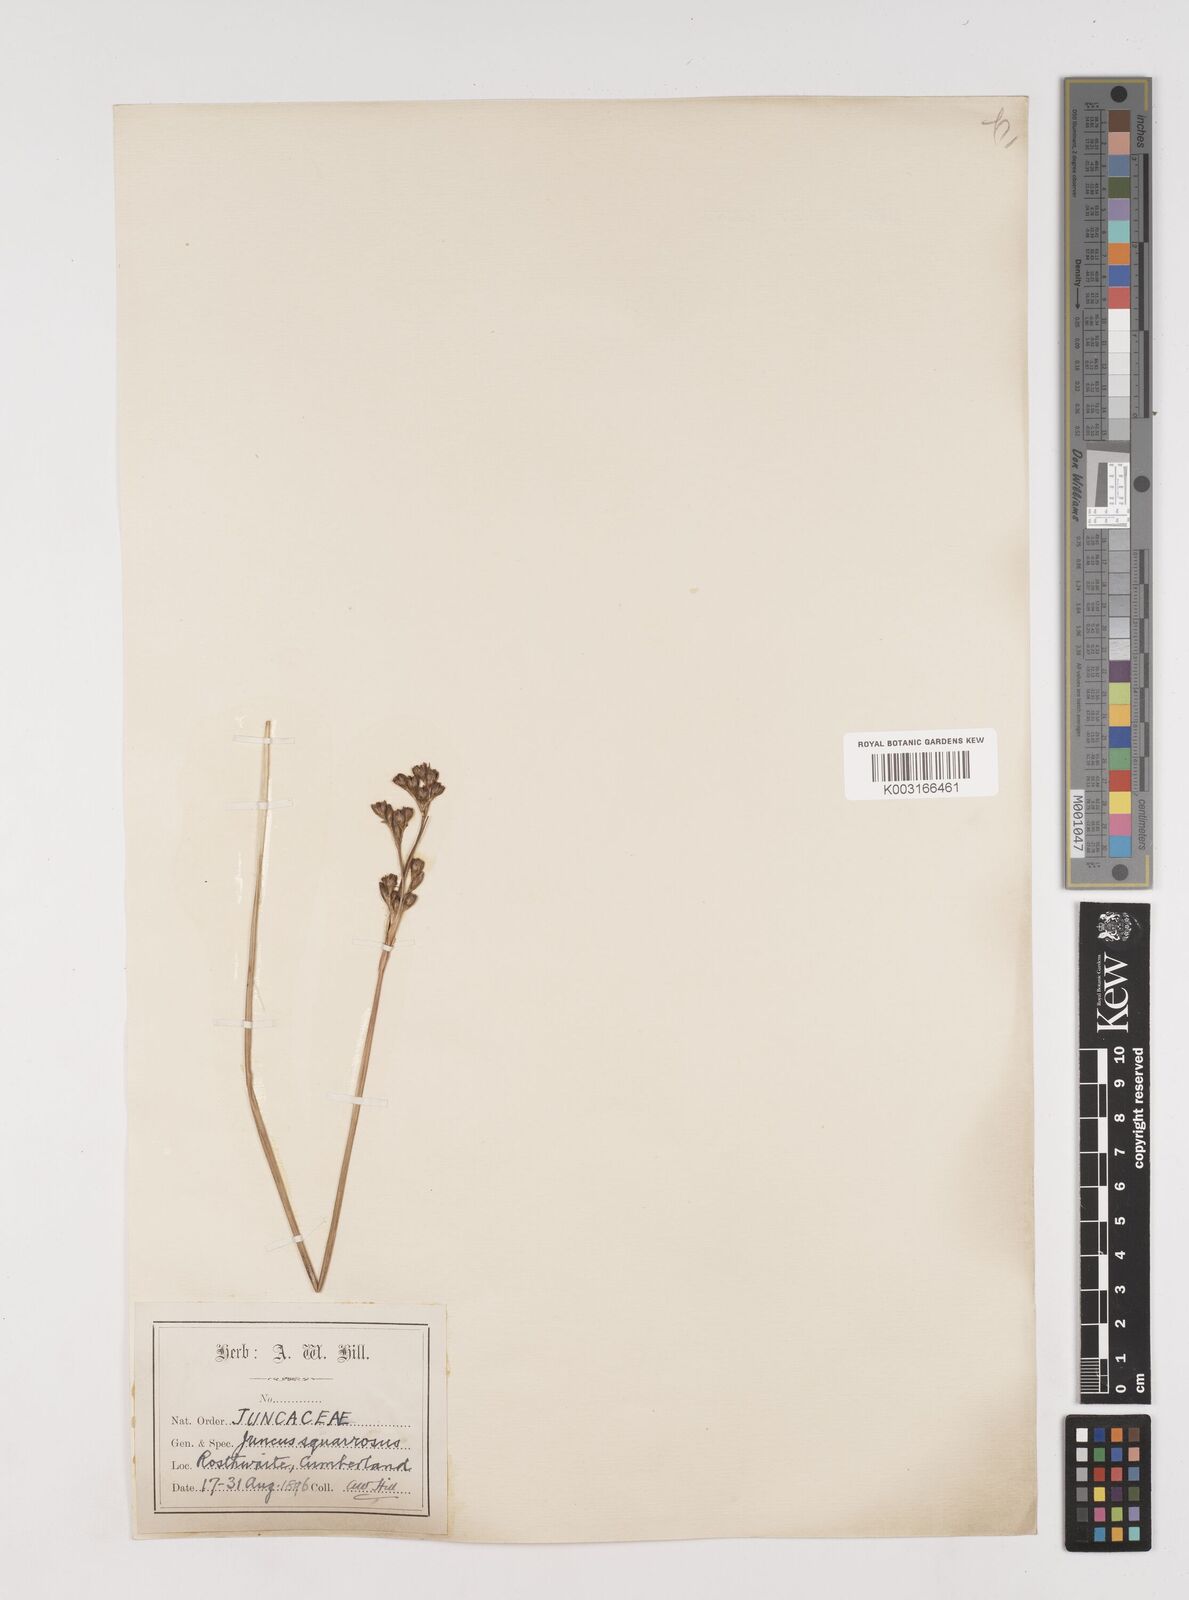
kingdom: Plantae
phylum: Tracheophyta
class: Liliopsida
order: Poales
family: Juncaceae
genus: Juncus
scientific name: Juncus squarrosus
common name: Heath rush
